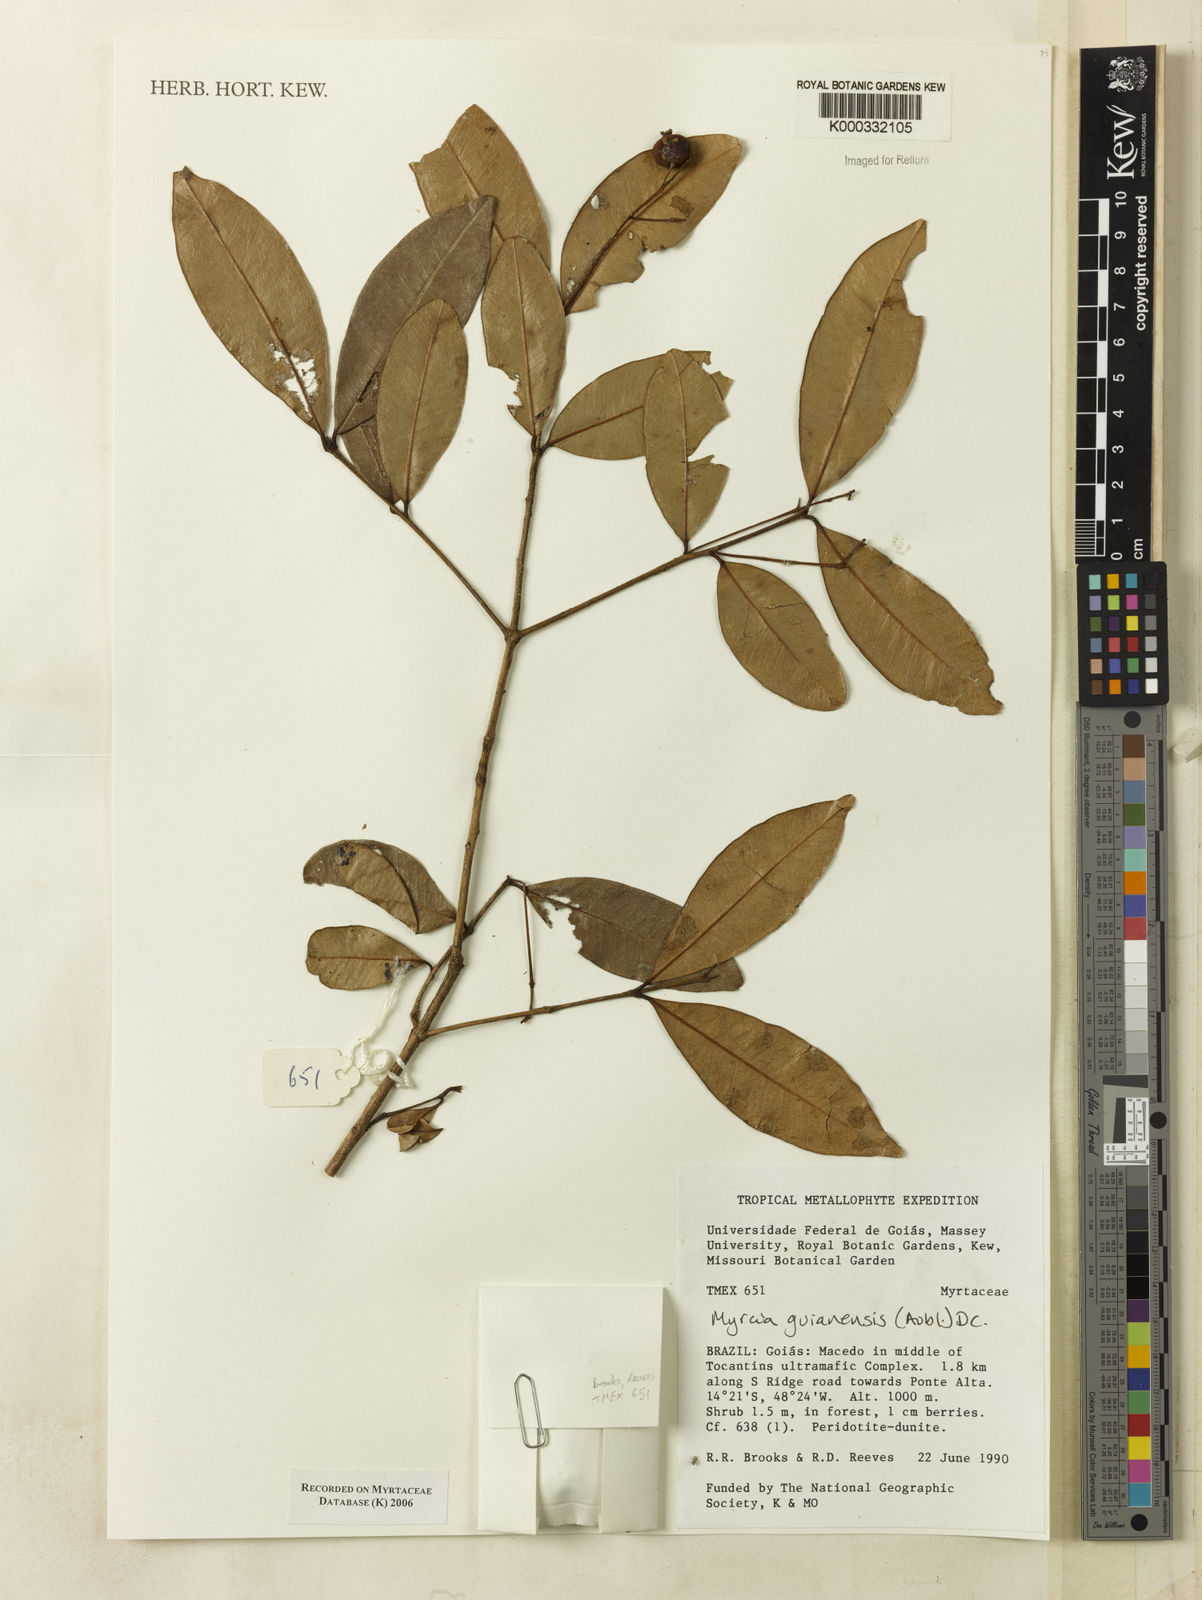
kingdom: Plantae
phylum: Tracheophyta
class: Magnoliopsida
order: Myrtales
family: Myrtaceae
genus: Myrcia
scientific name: Myrcia guianensis
